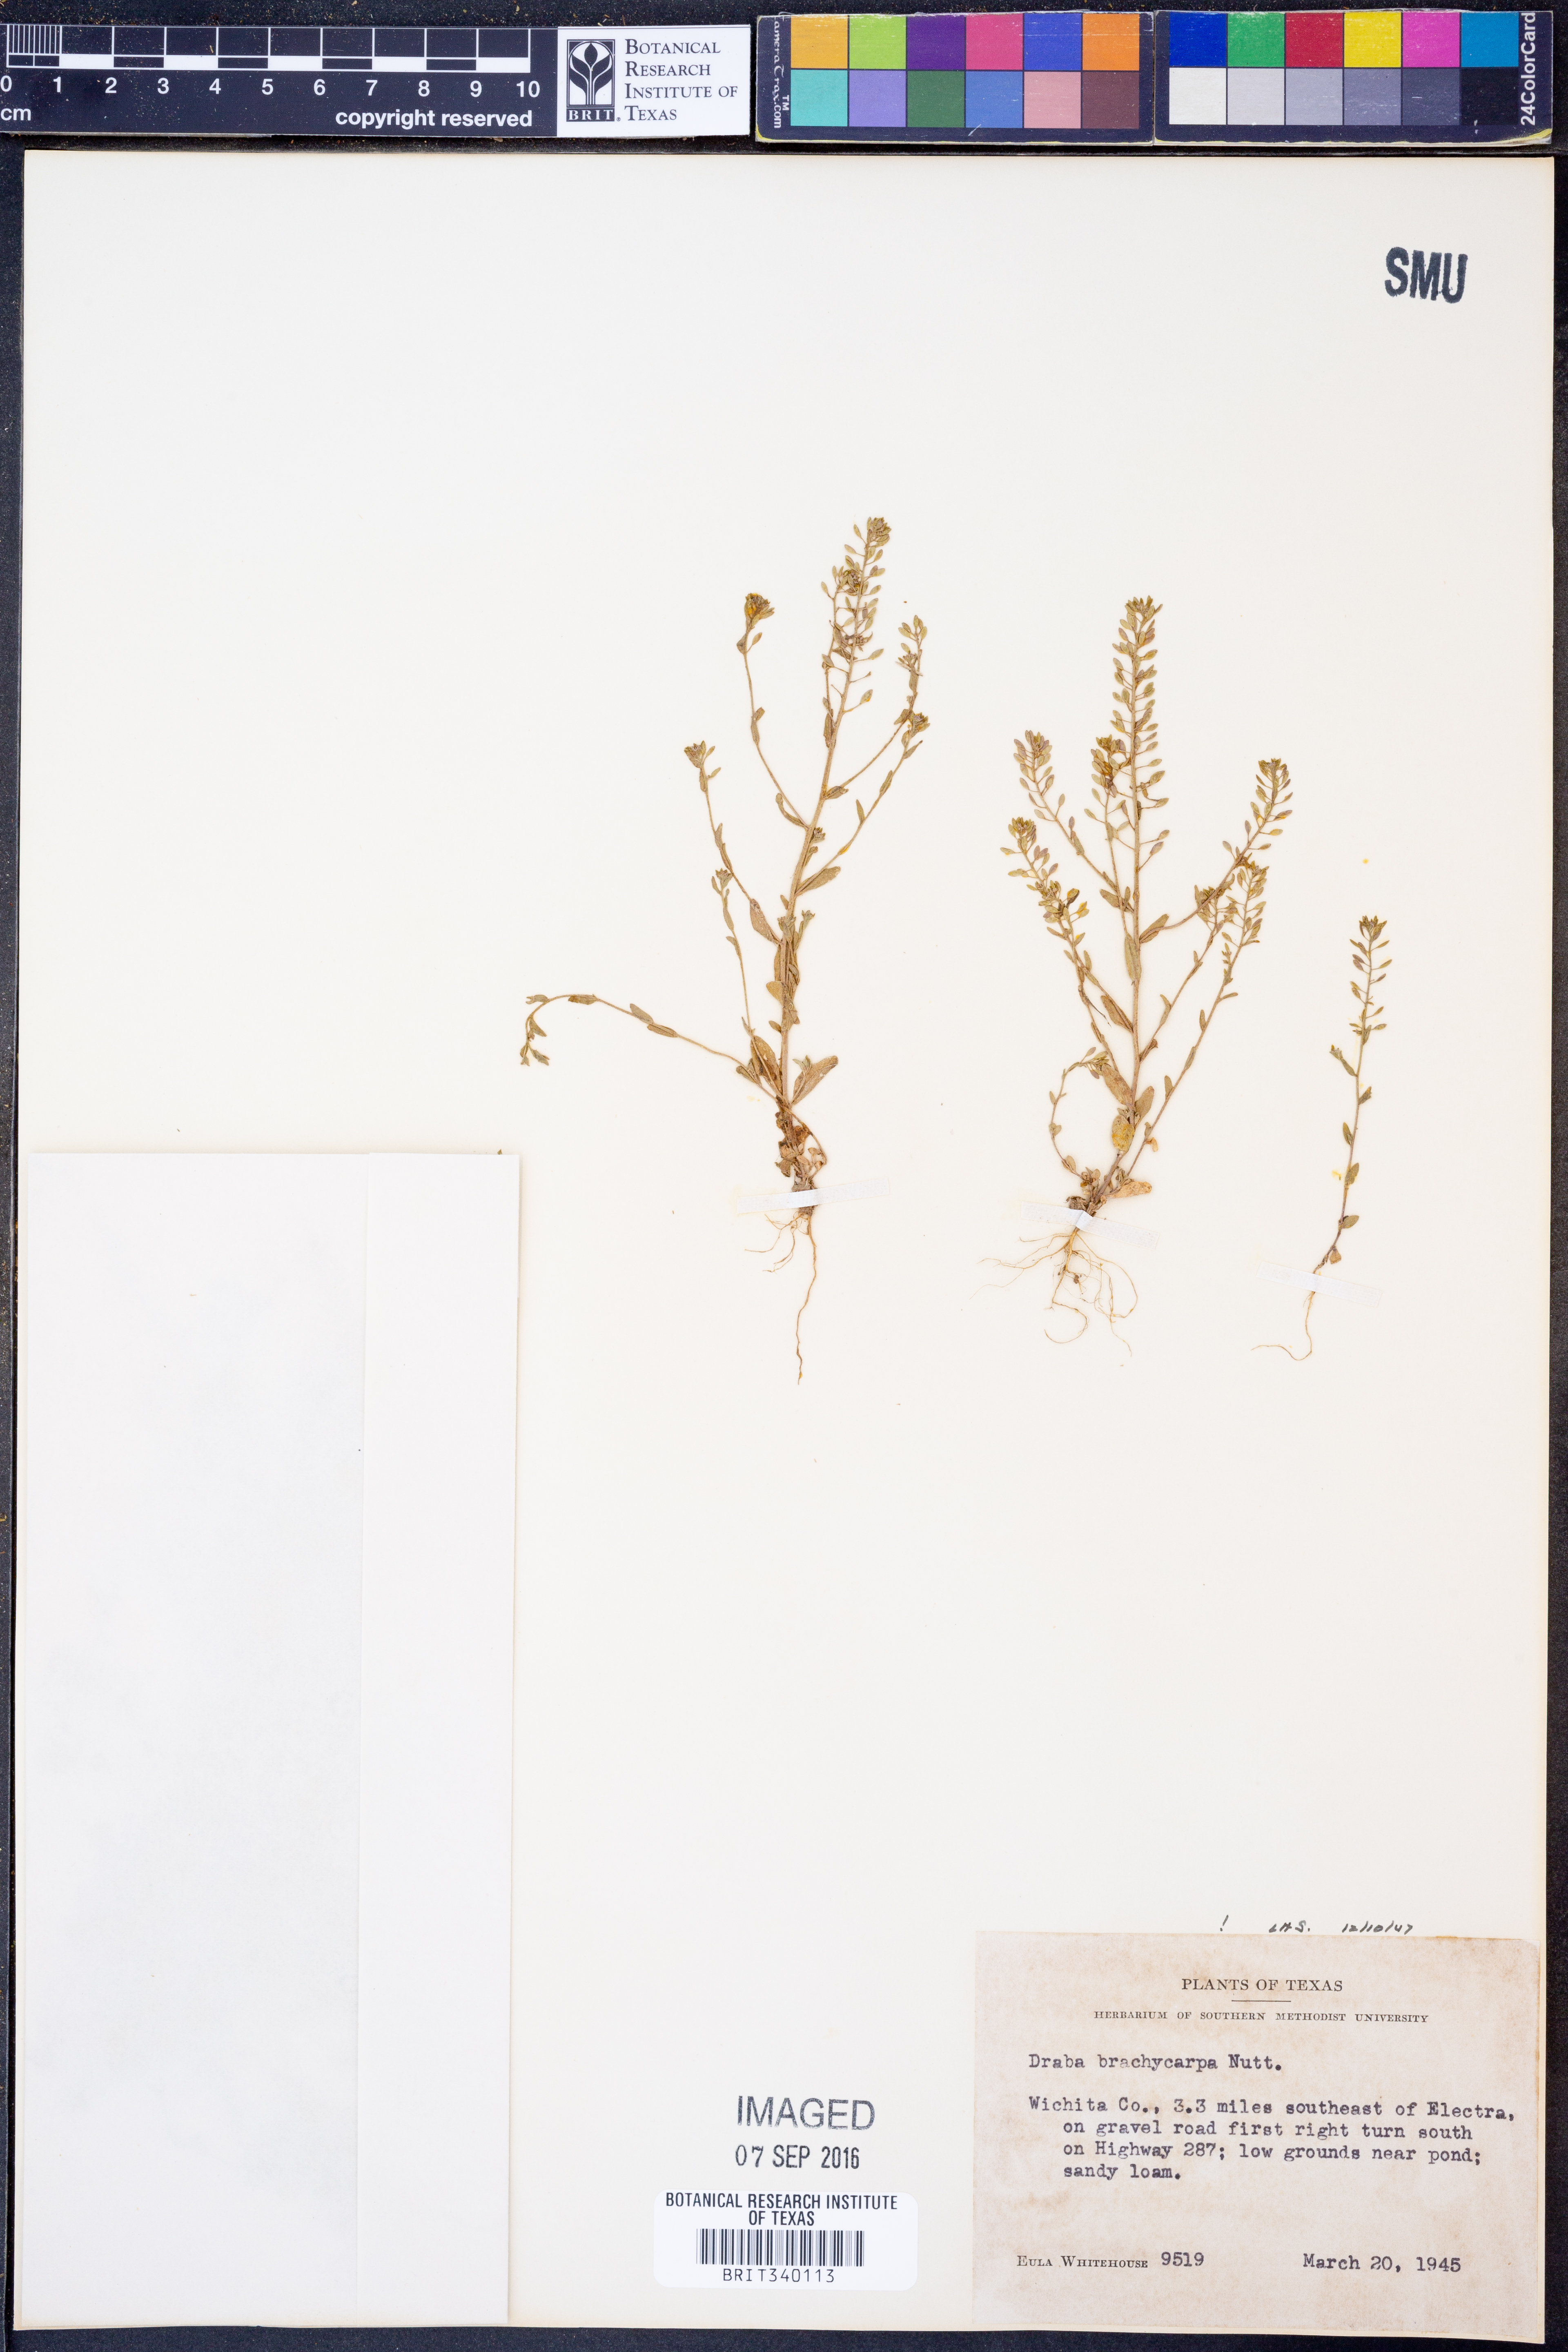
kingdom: Plantae
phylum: Tracheophyta
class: Magnoliopsida
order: Brassicales
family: Brassicaceae
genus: Abdra
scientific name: Abdra brachycarpa
